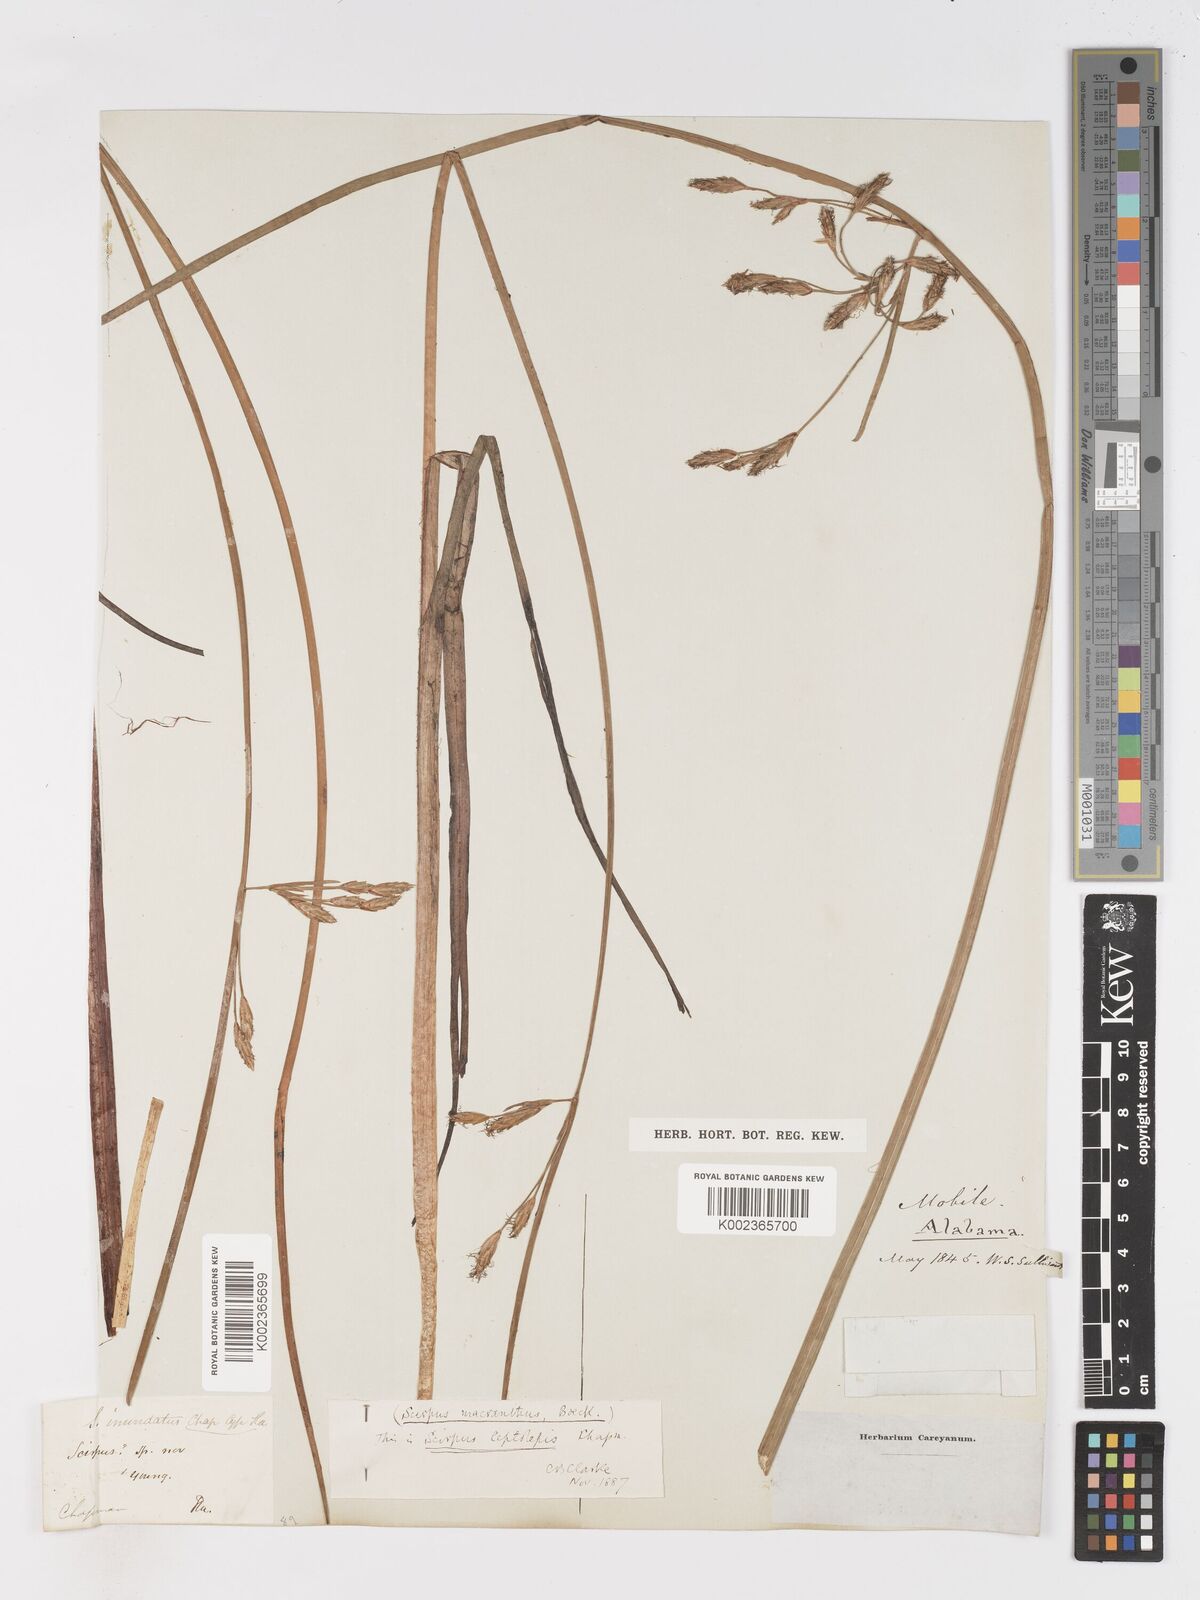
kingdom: Plantae
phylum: Tracheophyta
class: Liliopsida
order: Poales
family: Cyperaceae
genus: Schoenoplectus
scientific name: Schoenoplectus etuberculatus
